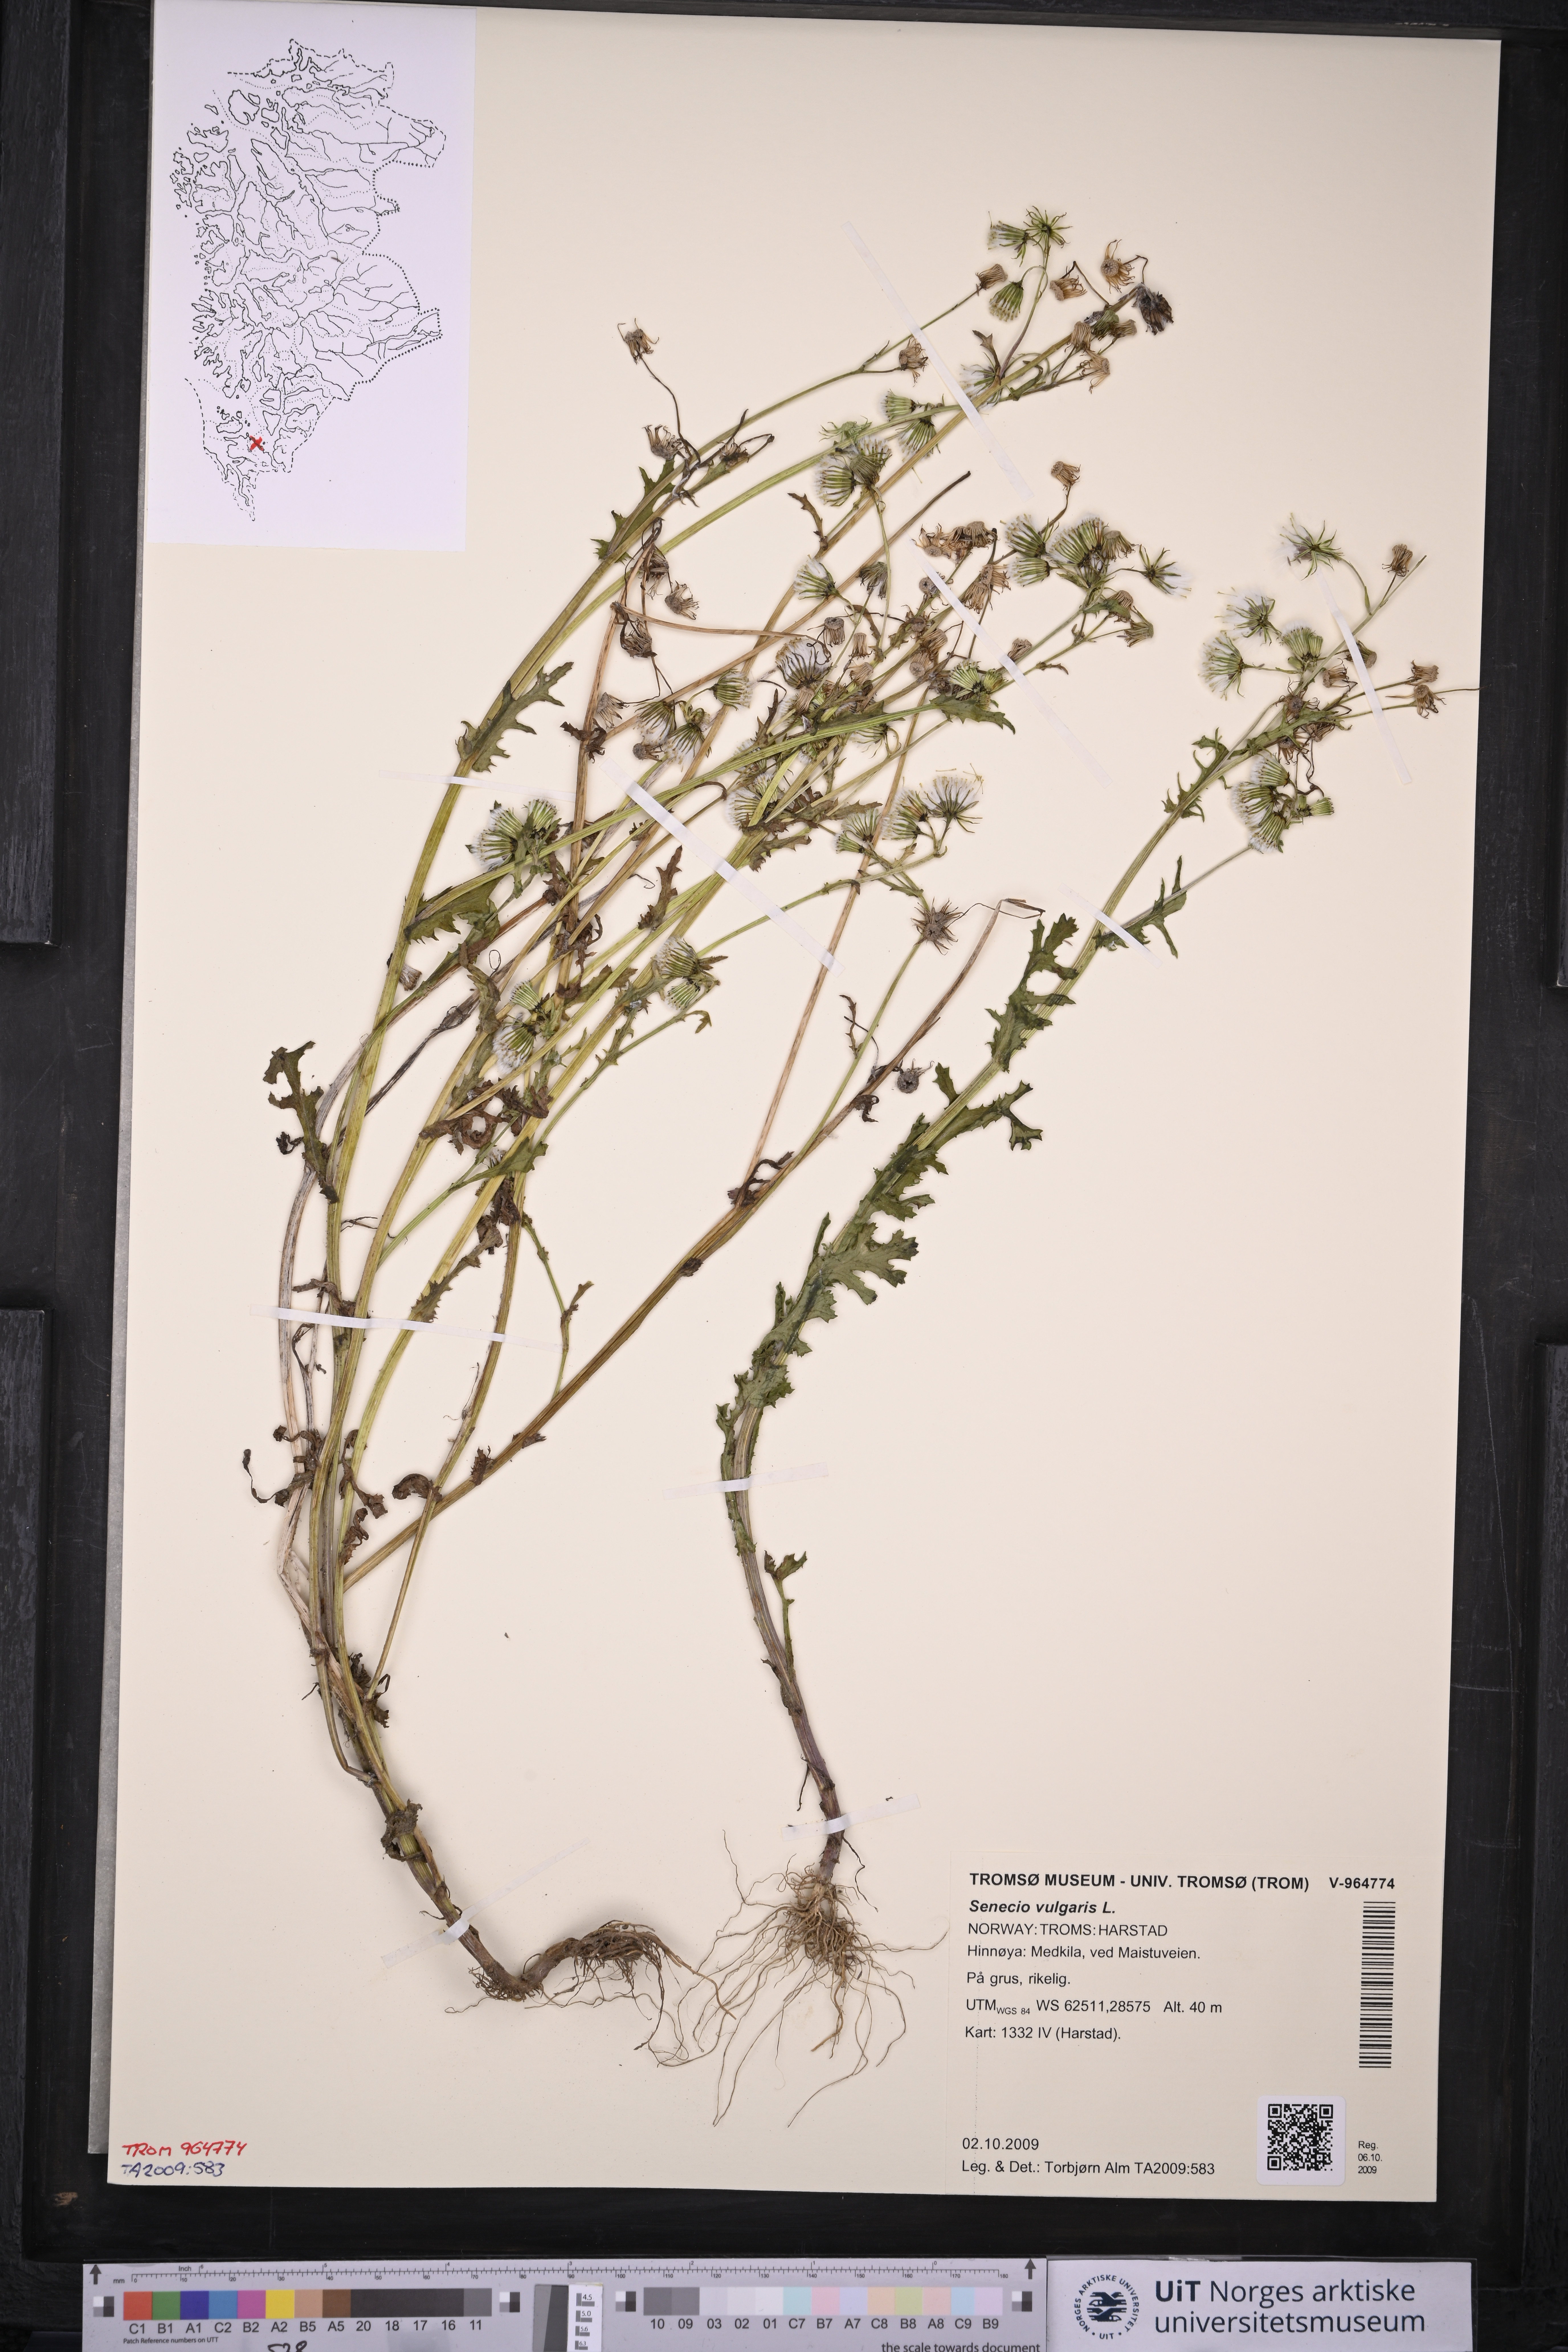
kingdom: Plantae
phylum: Tracheophyta
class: Magnoliopsida
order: Asterales
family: Asteraceae
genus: Senecio
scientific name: Senecio vulgaris
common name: Old-man-in-the-spring
